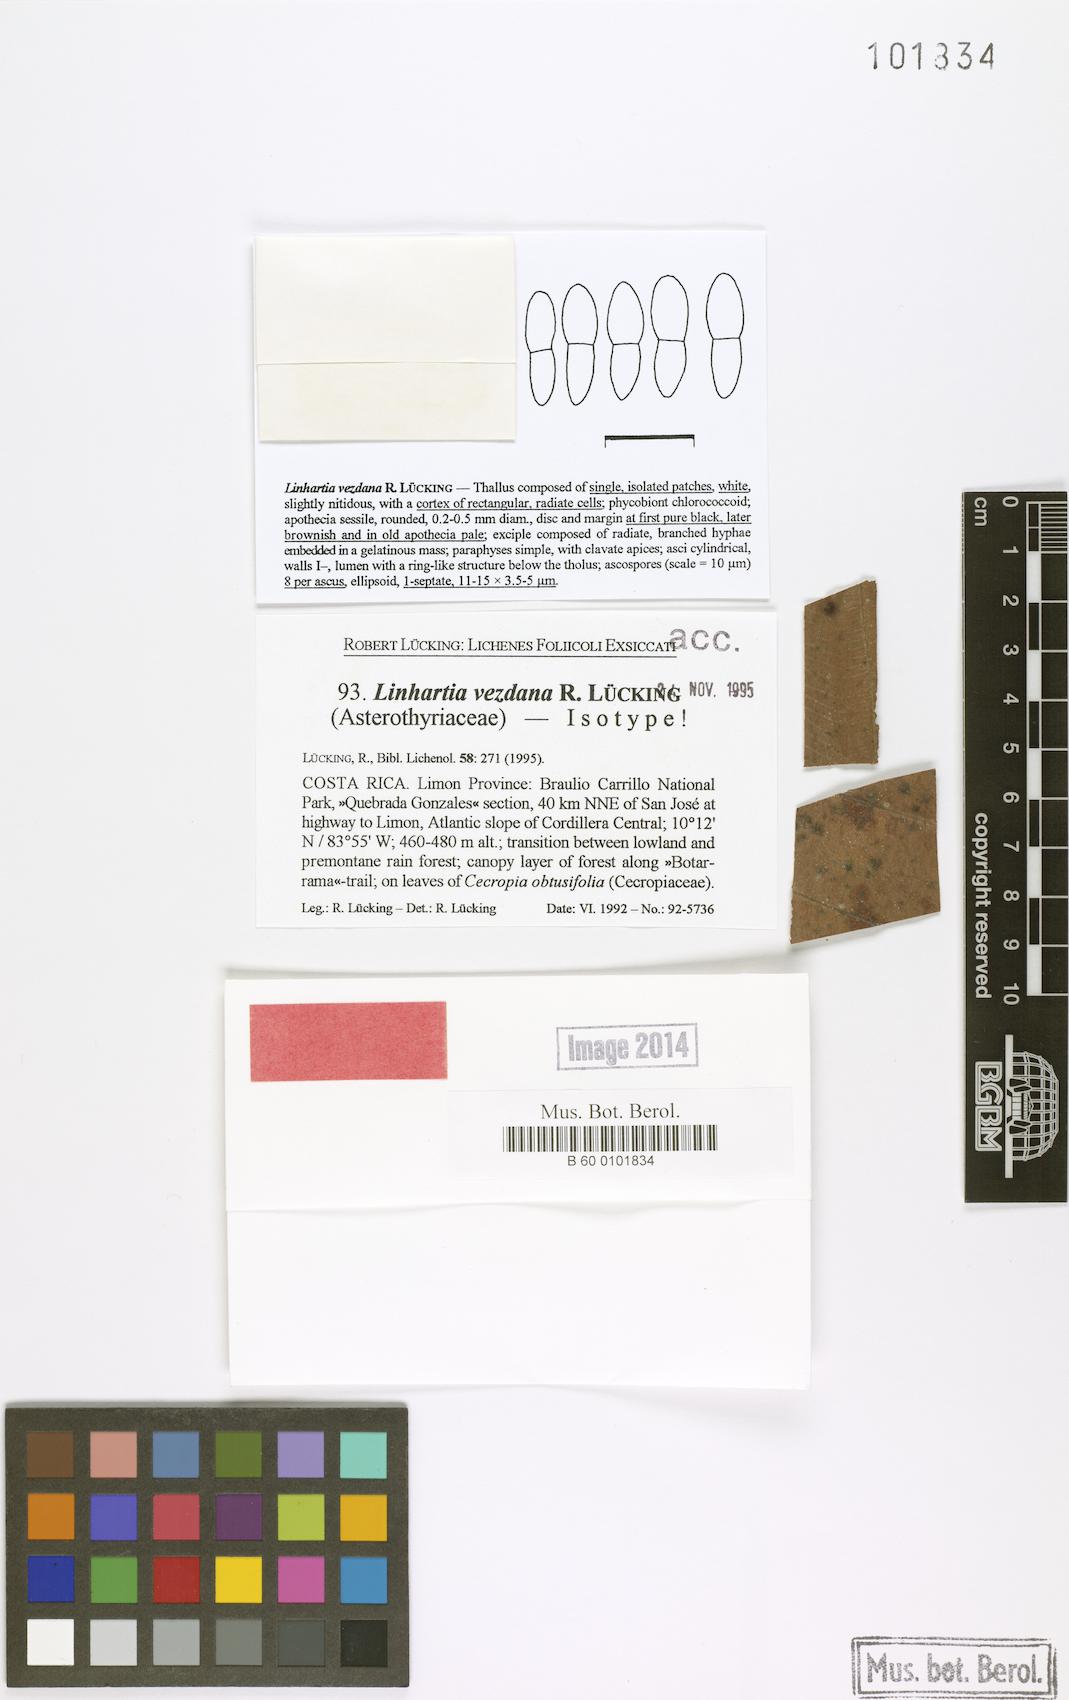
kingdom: Fungi
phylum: Ascomycota
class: Lecanoromycetes
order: Ostropales
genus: Linhartia
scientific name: Linhartia
